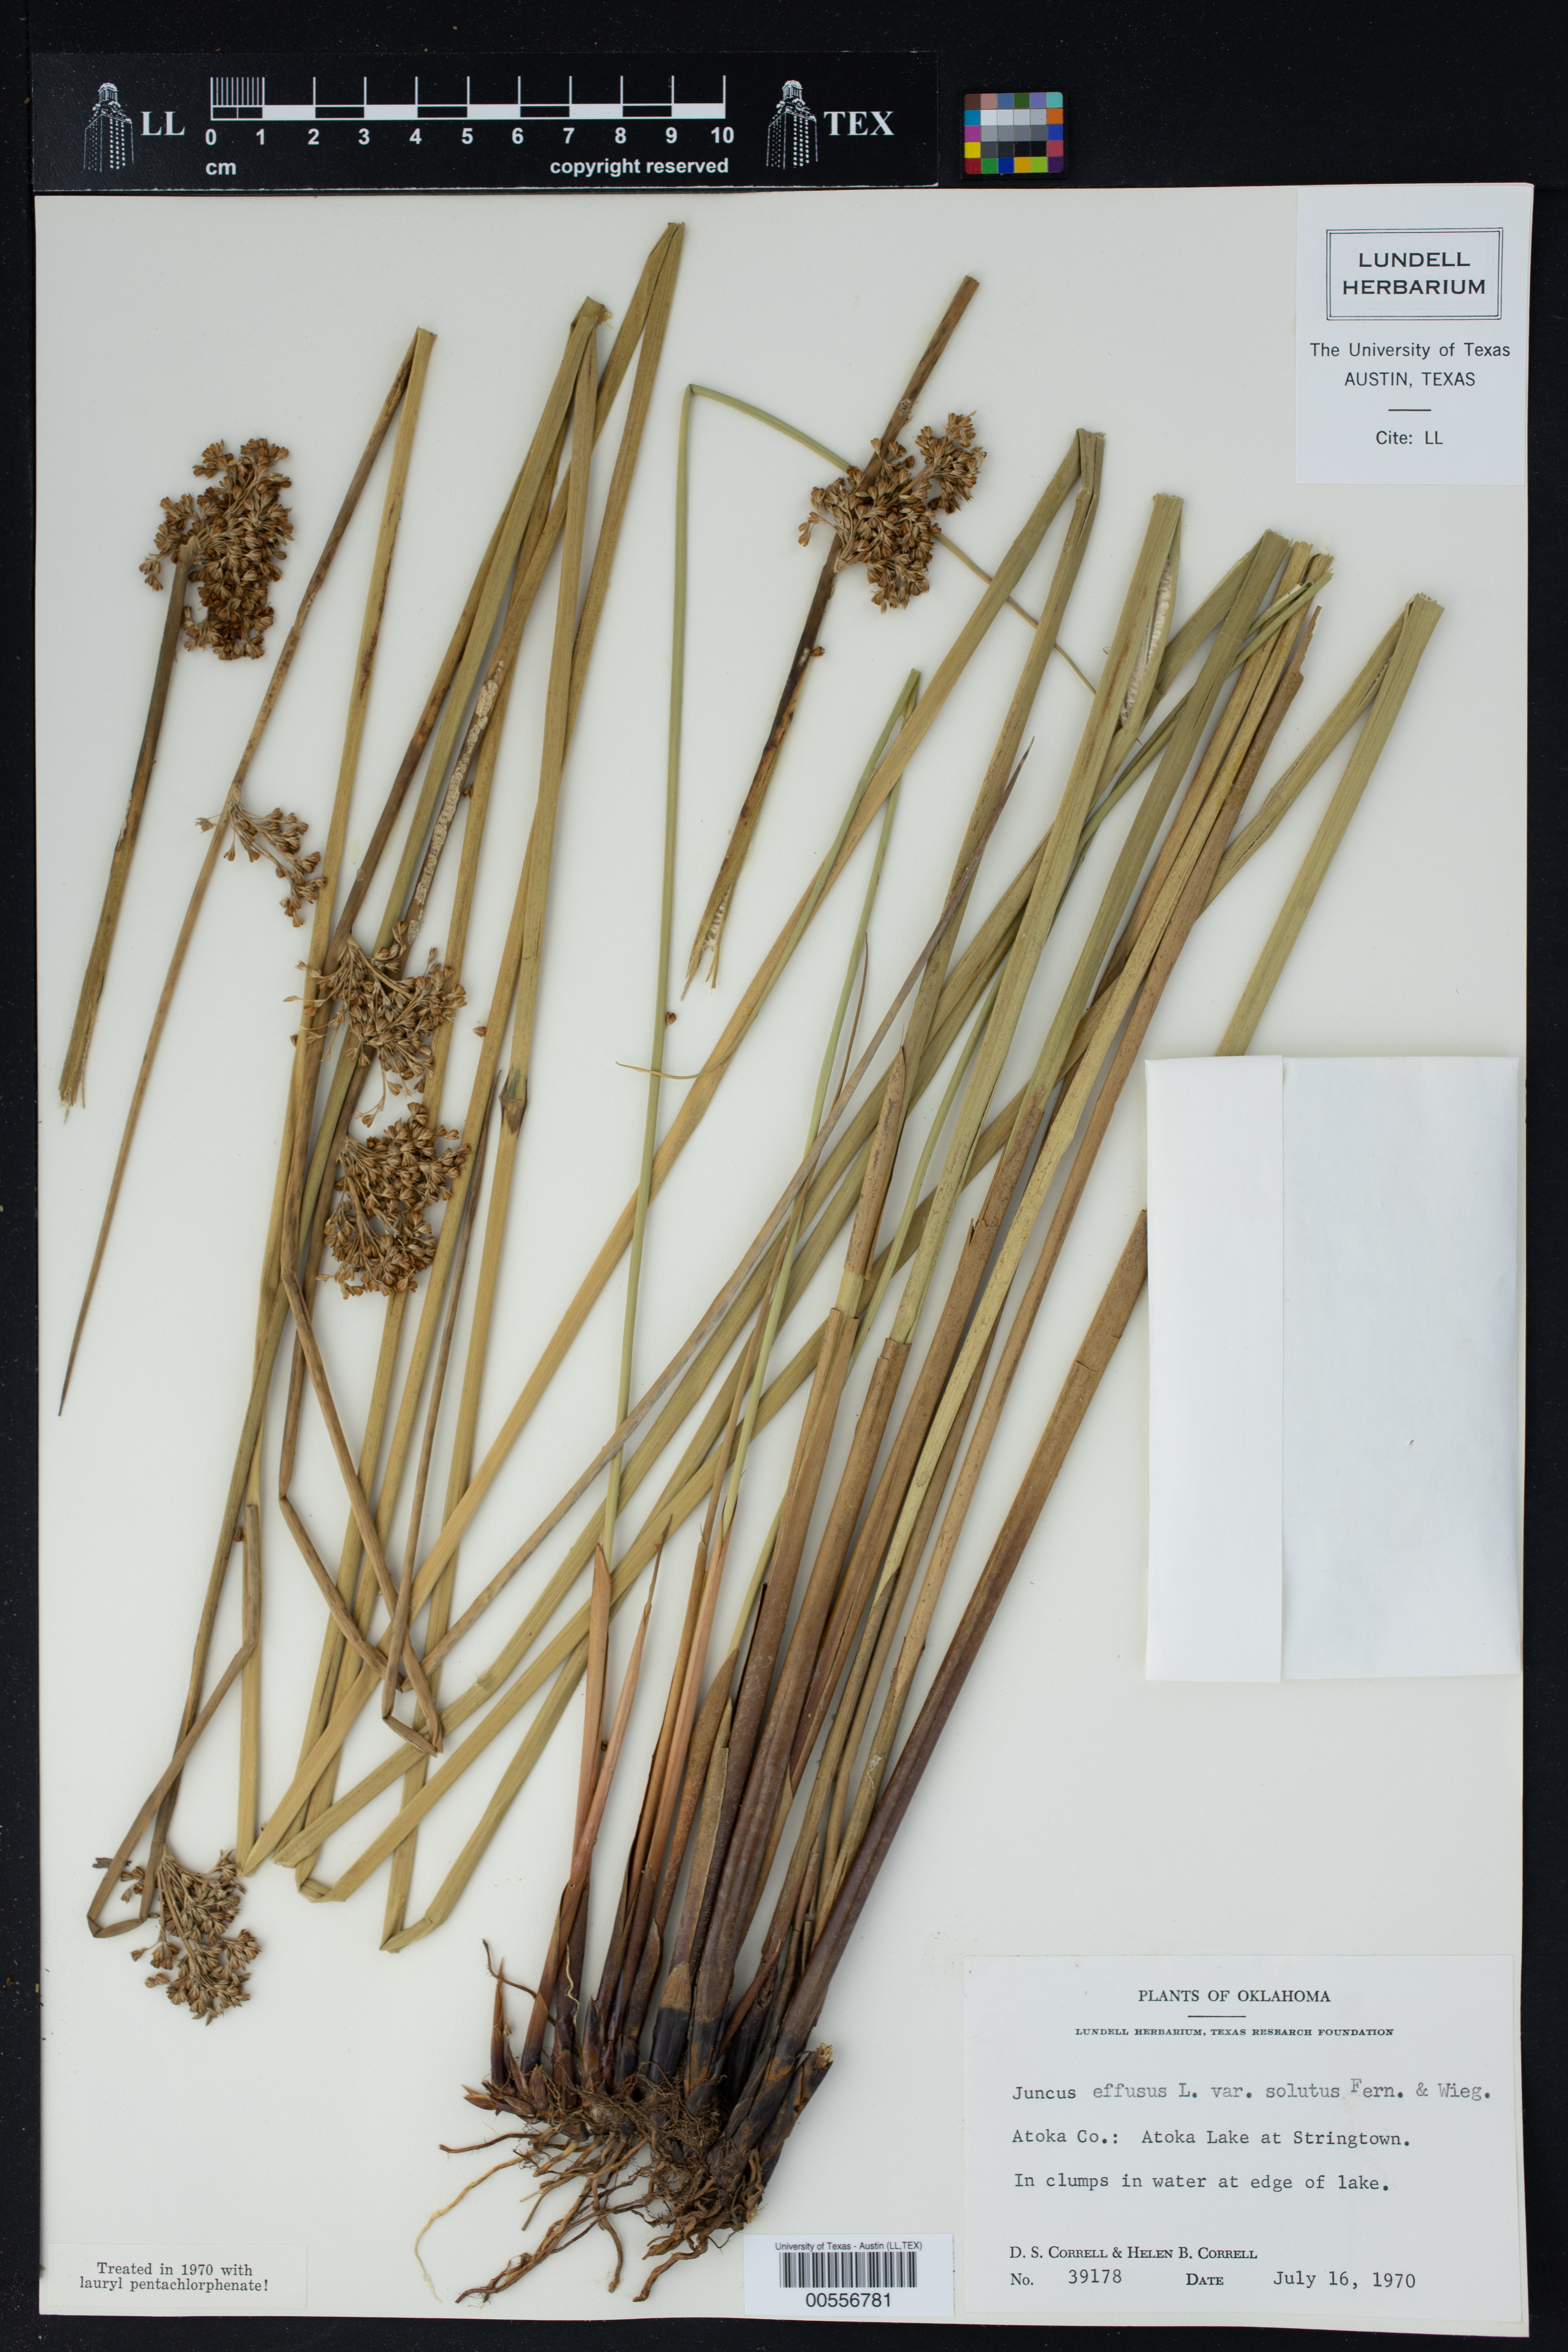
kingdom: Plantae
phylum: Tracheophyta
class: Liliopsida
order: Poales
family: Juncaceae
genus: Juncus
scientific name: Juncus effusus
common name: Soft rush
